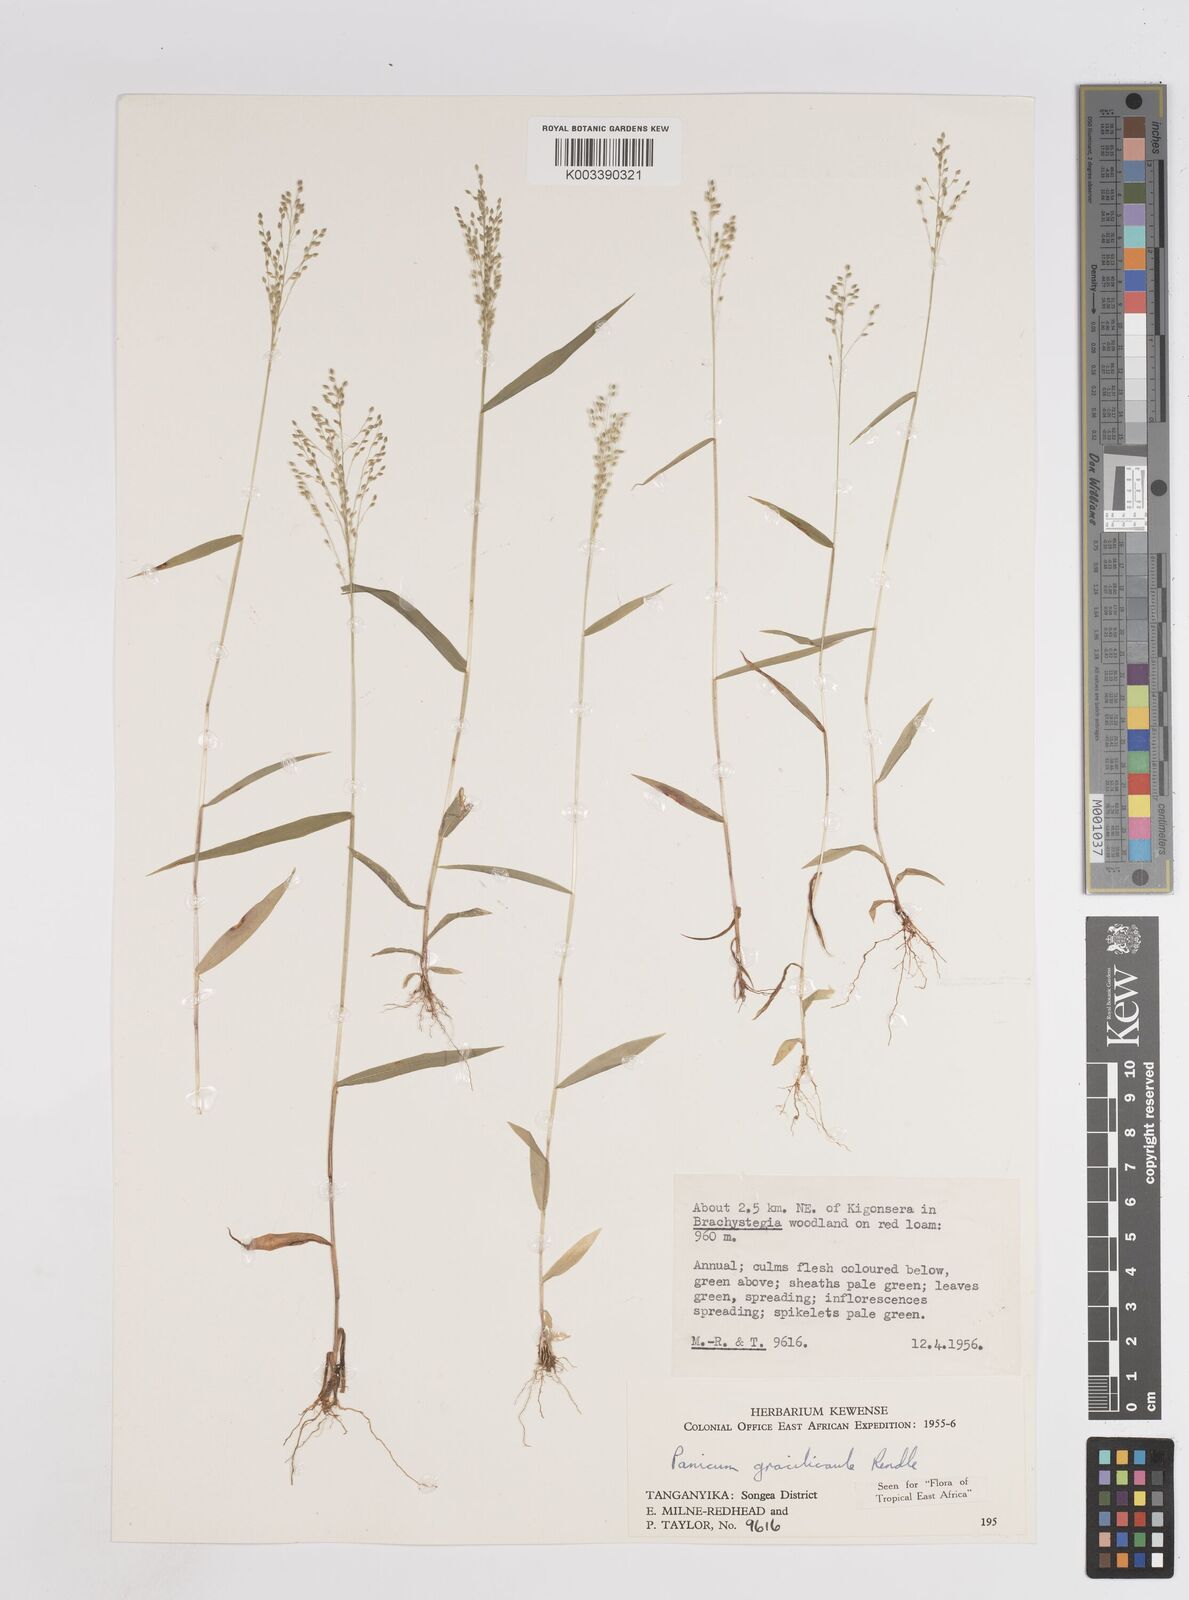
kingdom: Plantae
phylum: Tracheophyta
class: Liliopsida
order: Poales
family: Poaceae
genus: Trichanthecium
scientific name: Trichanthecium gracilicaule
